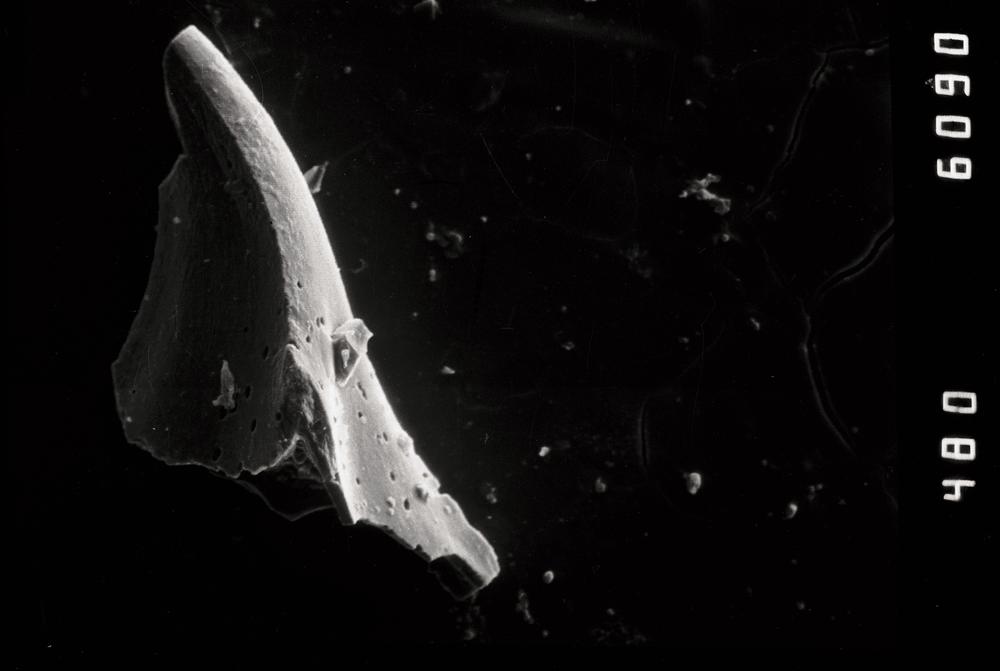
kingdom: Animalia
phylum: Chordata
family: Balognathidae
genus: Baltoniodus
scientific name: Baltoniodus
